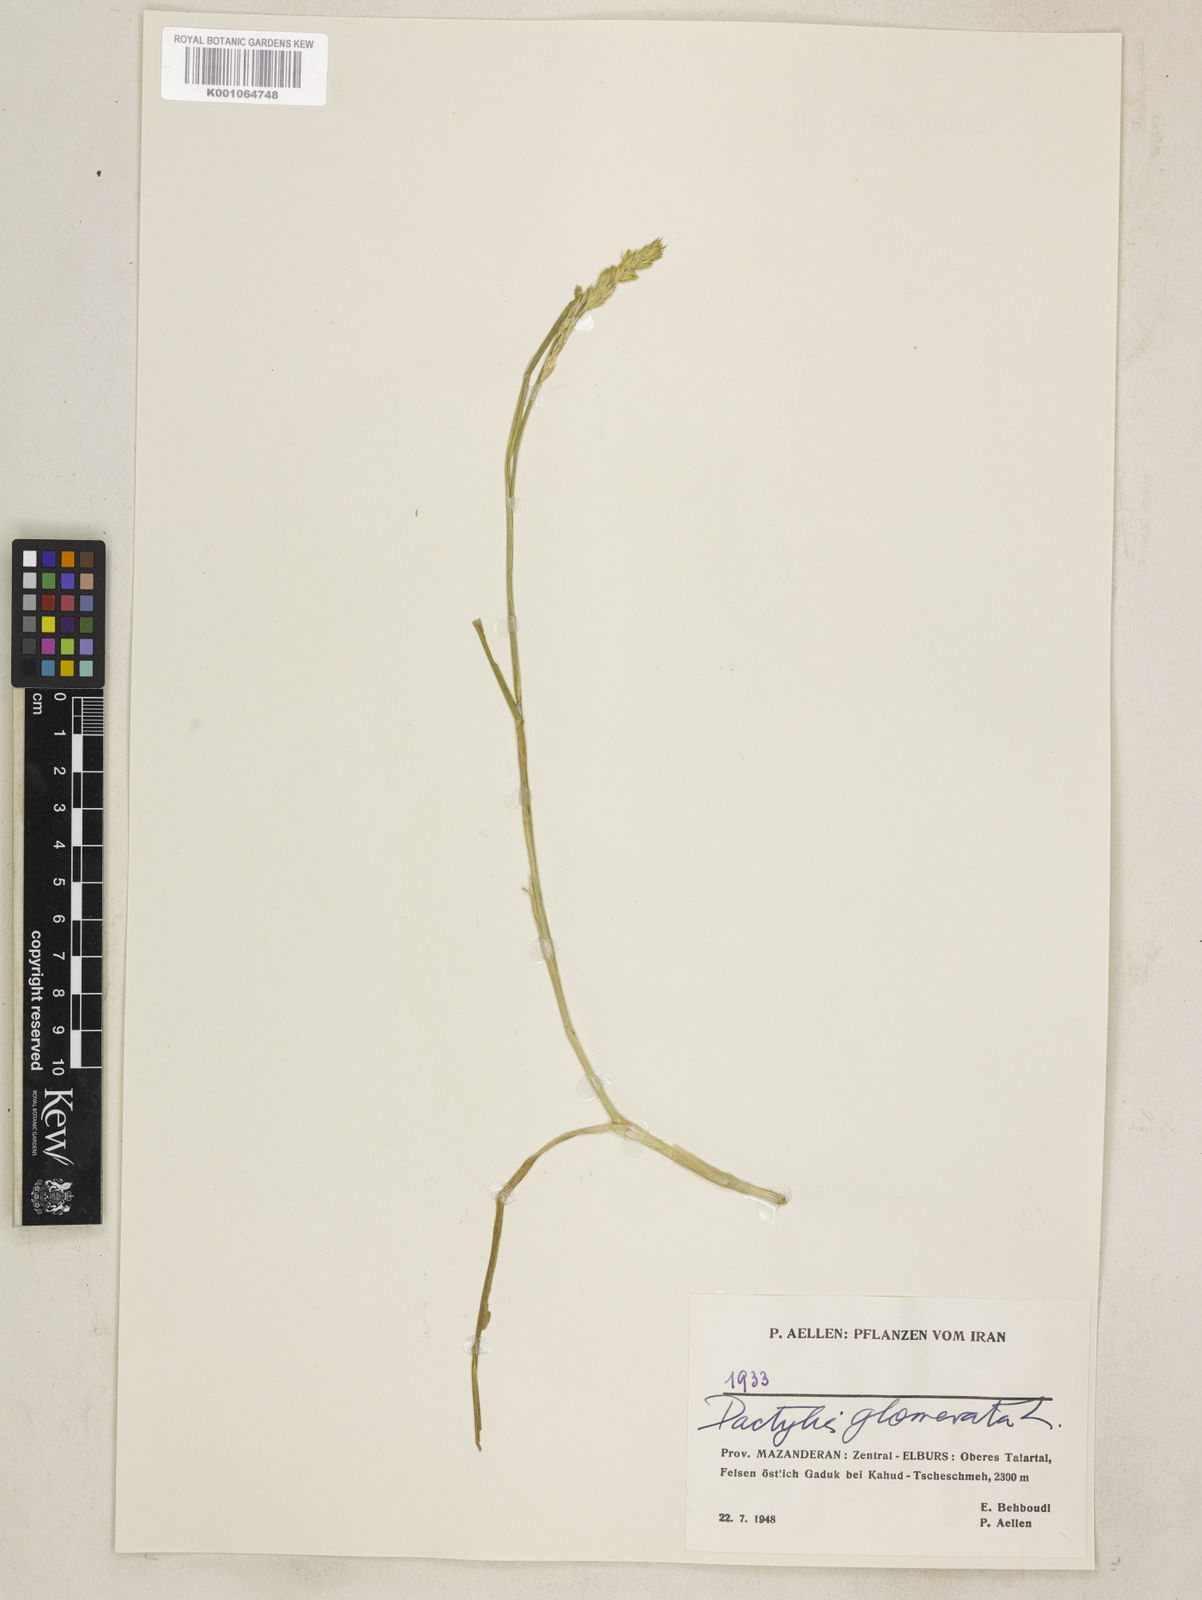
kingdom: Plantae
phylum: Tracheophyta
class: Liliopsida
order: Poales
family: Poaceae
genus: Dactylis
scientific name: Dactylis glomerata
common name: Orchardgrass
